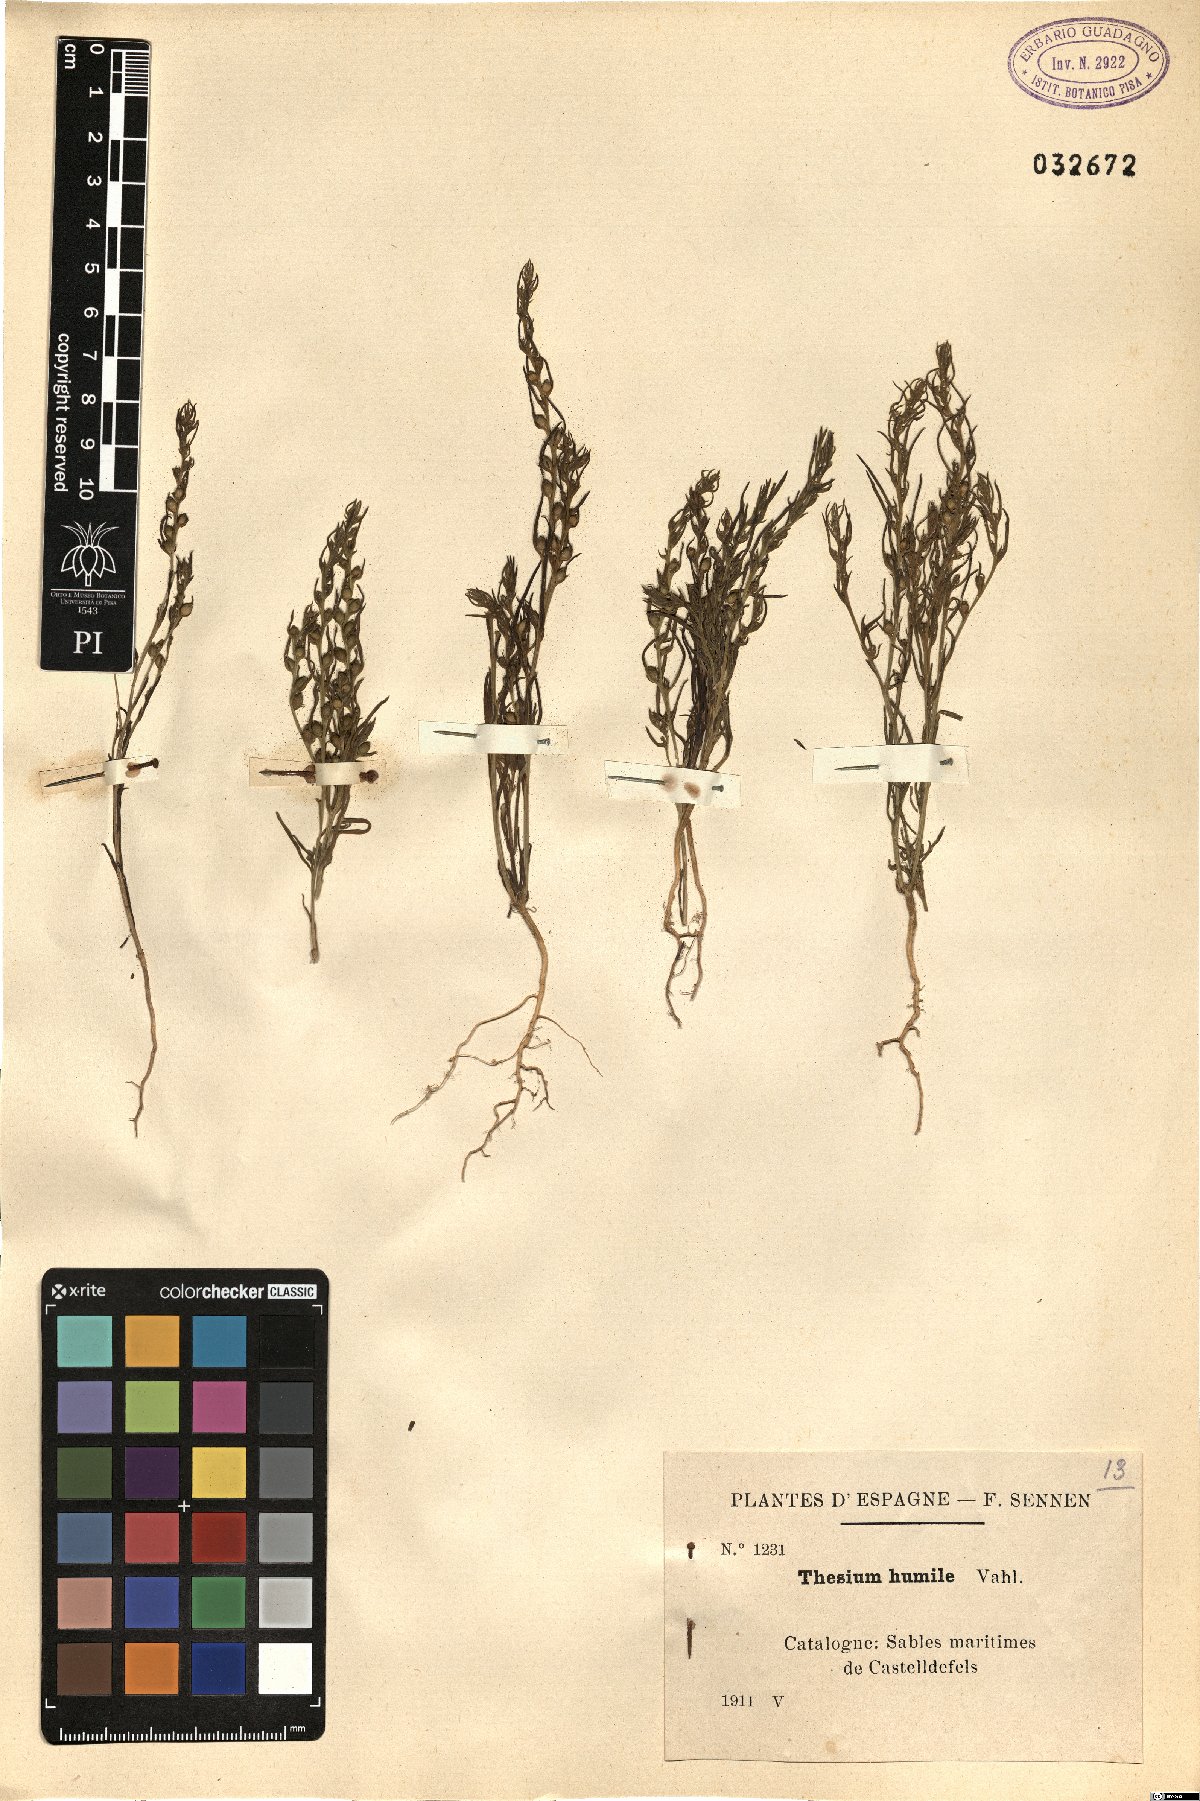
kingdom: Plantae
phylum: Tracheophyta
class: Magnoliopsida
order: Santalales
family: Thesiaceae
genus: Thesium
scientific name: Thesium humile
